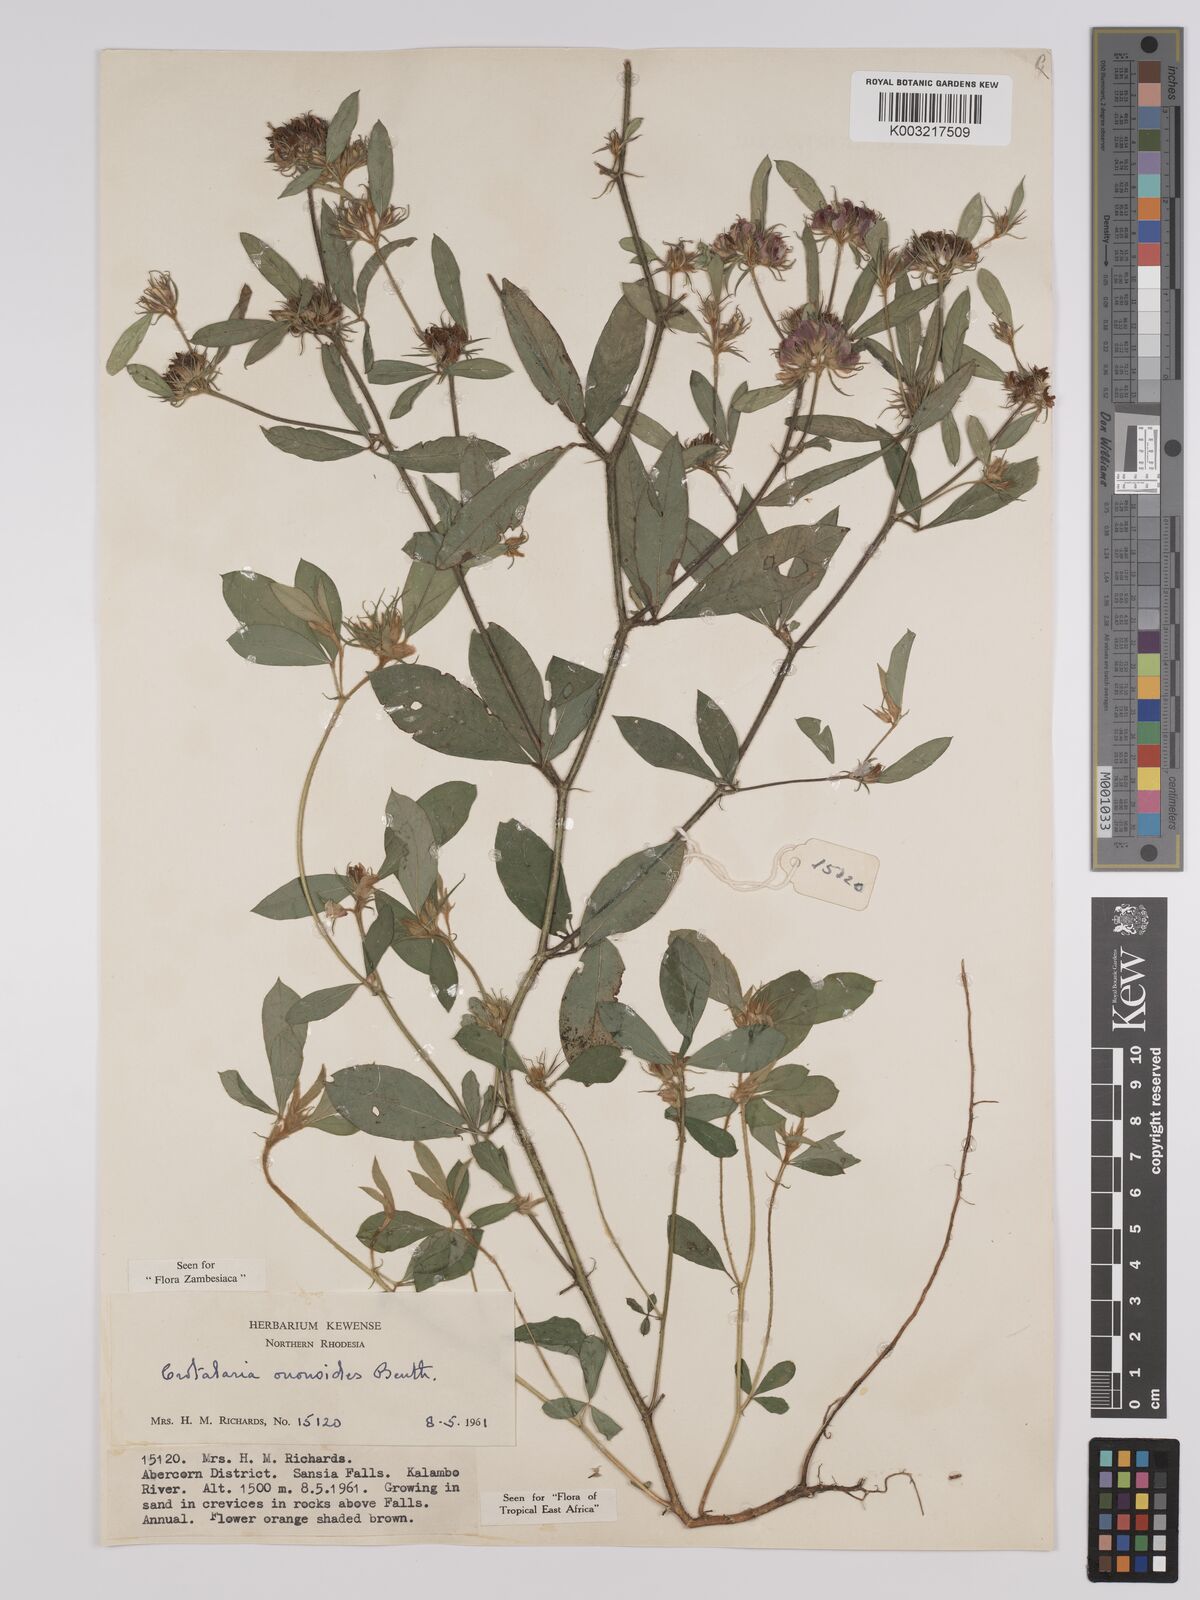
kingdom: Plantae
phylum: Tracheophyta
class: Magnoliopsida
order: Fabales
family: Fabaceae
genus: Crotalaria
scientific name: Crotalaria ononoides
